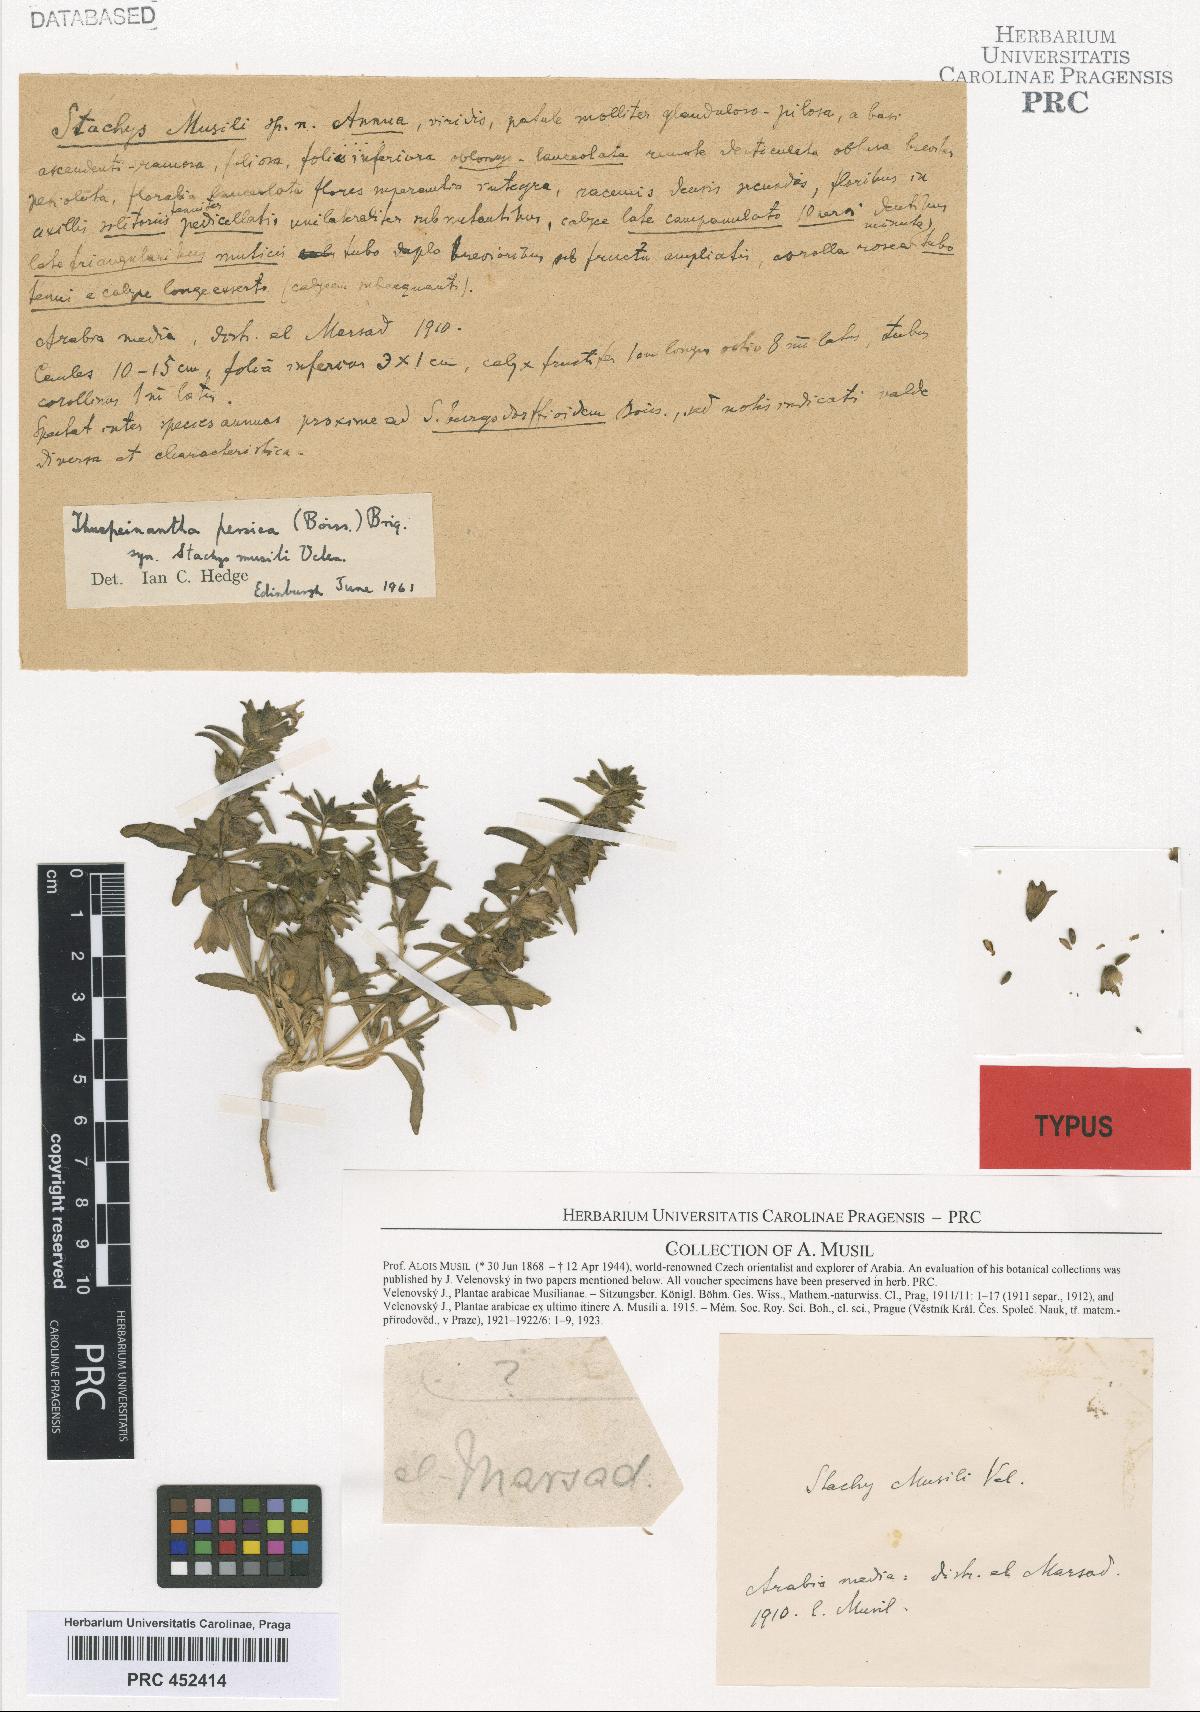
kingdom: Plantae
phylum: Tracheophyta
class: Magnoliopsida
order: Lamiales
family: Lamiaceae
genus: Thuspeinanta
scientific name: Thuspeinanta persica
